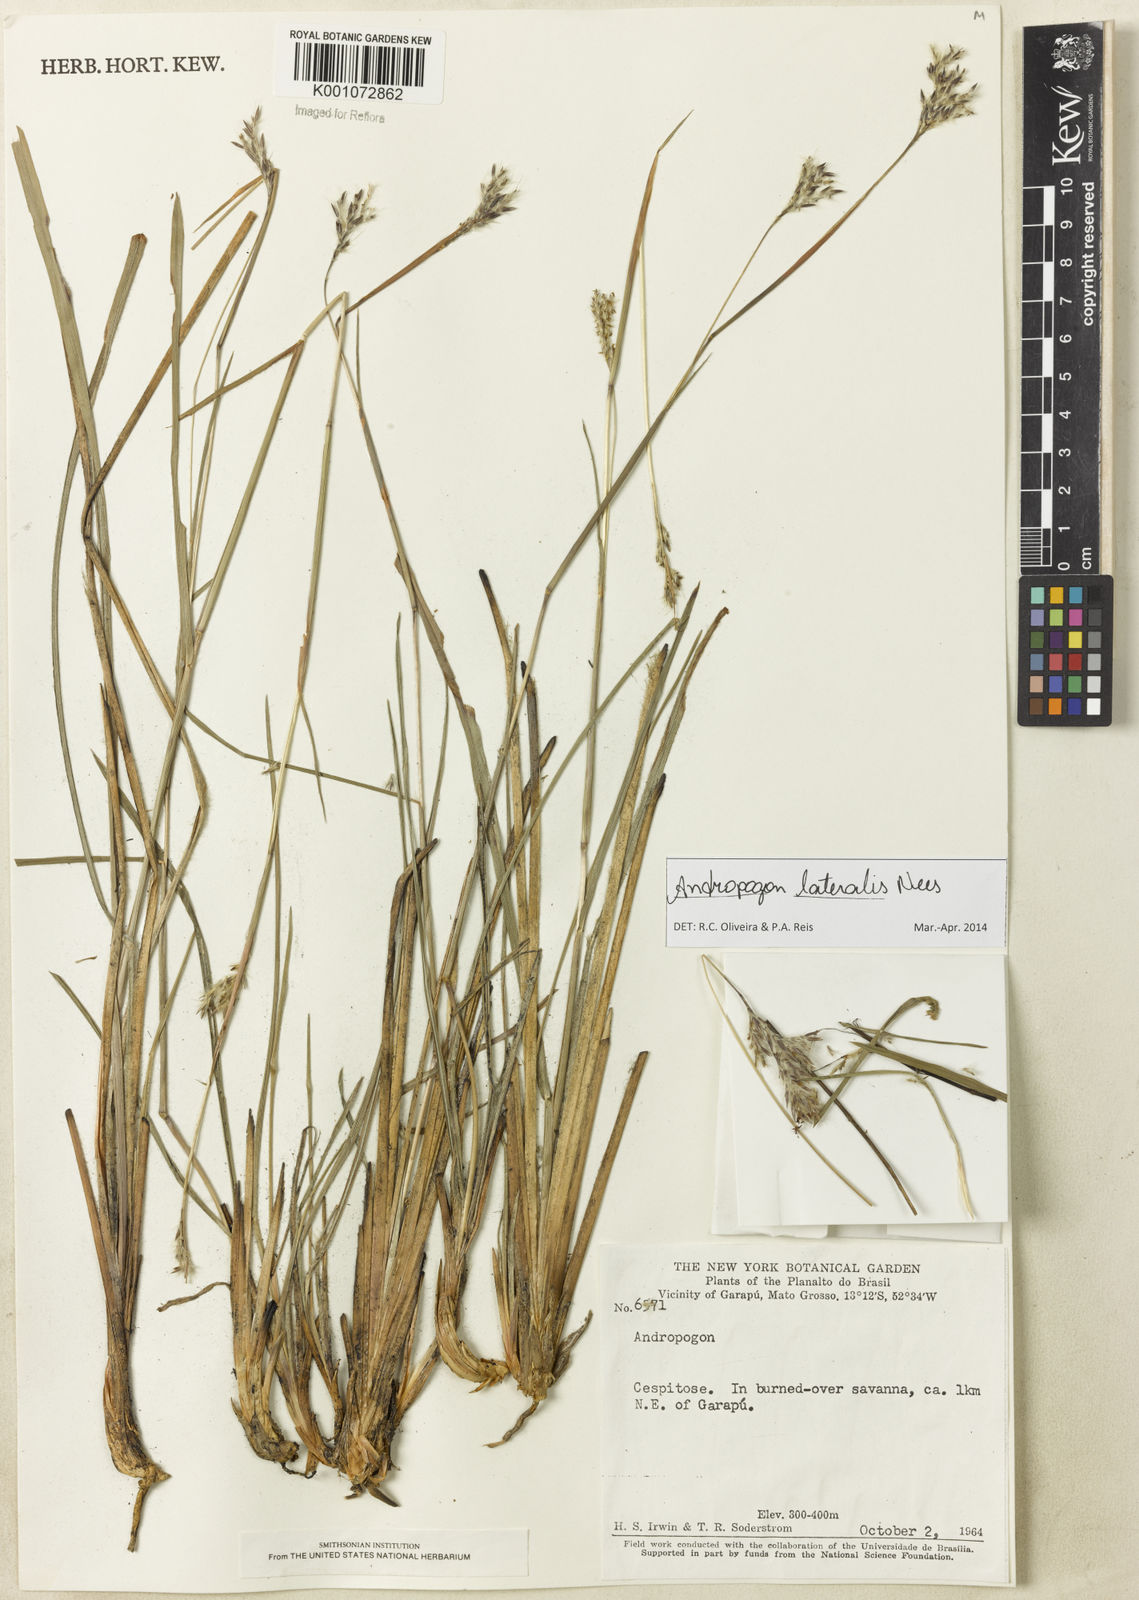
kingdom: Plantae
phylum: Tracheophyta
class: Liliopsida
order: Poales
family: Poaceae
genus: Andropogon
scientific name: Andropogon lateralis
